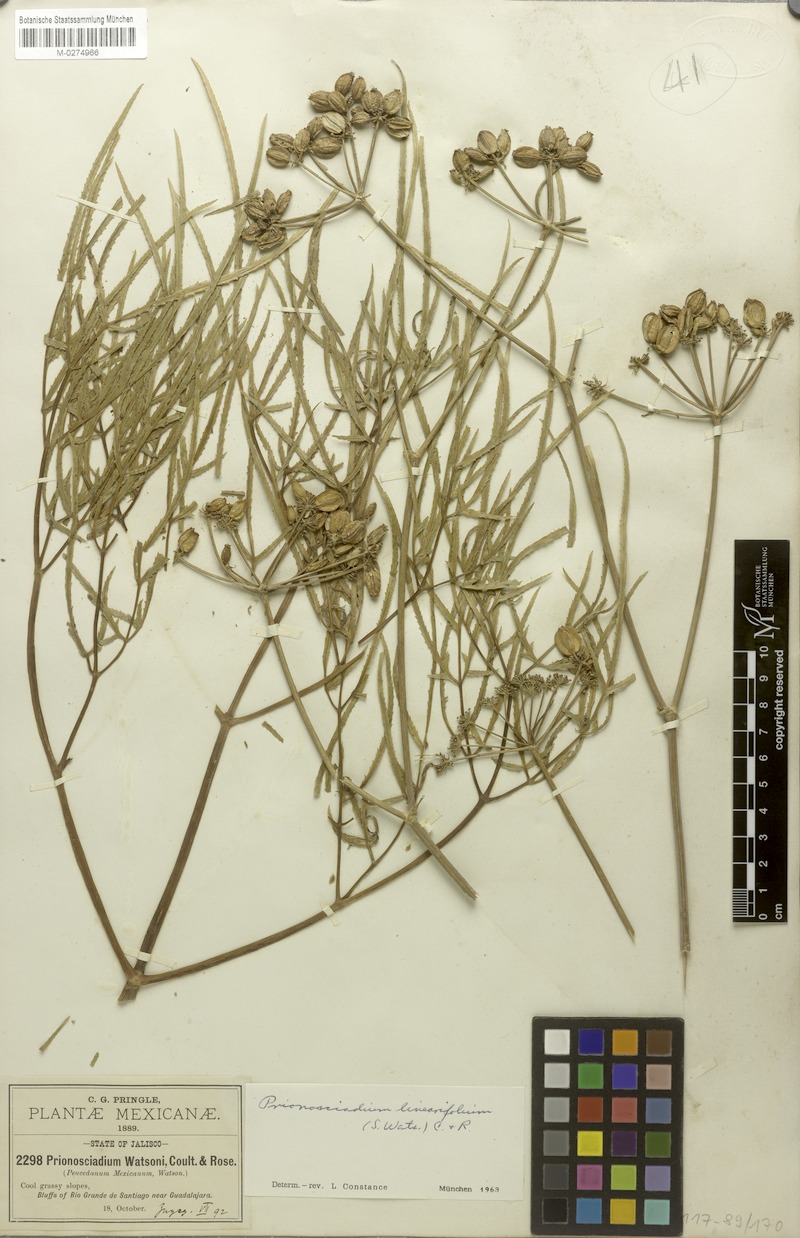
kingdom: Plantae
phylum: Tracheophyta
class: Magnoliopsida
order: Apiales
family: Apiaceae
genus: Prionosciadium
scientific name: Prionosciadium linearifolium
